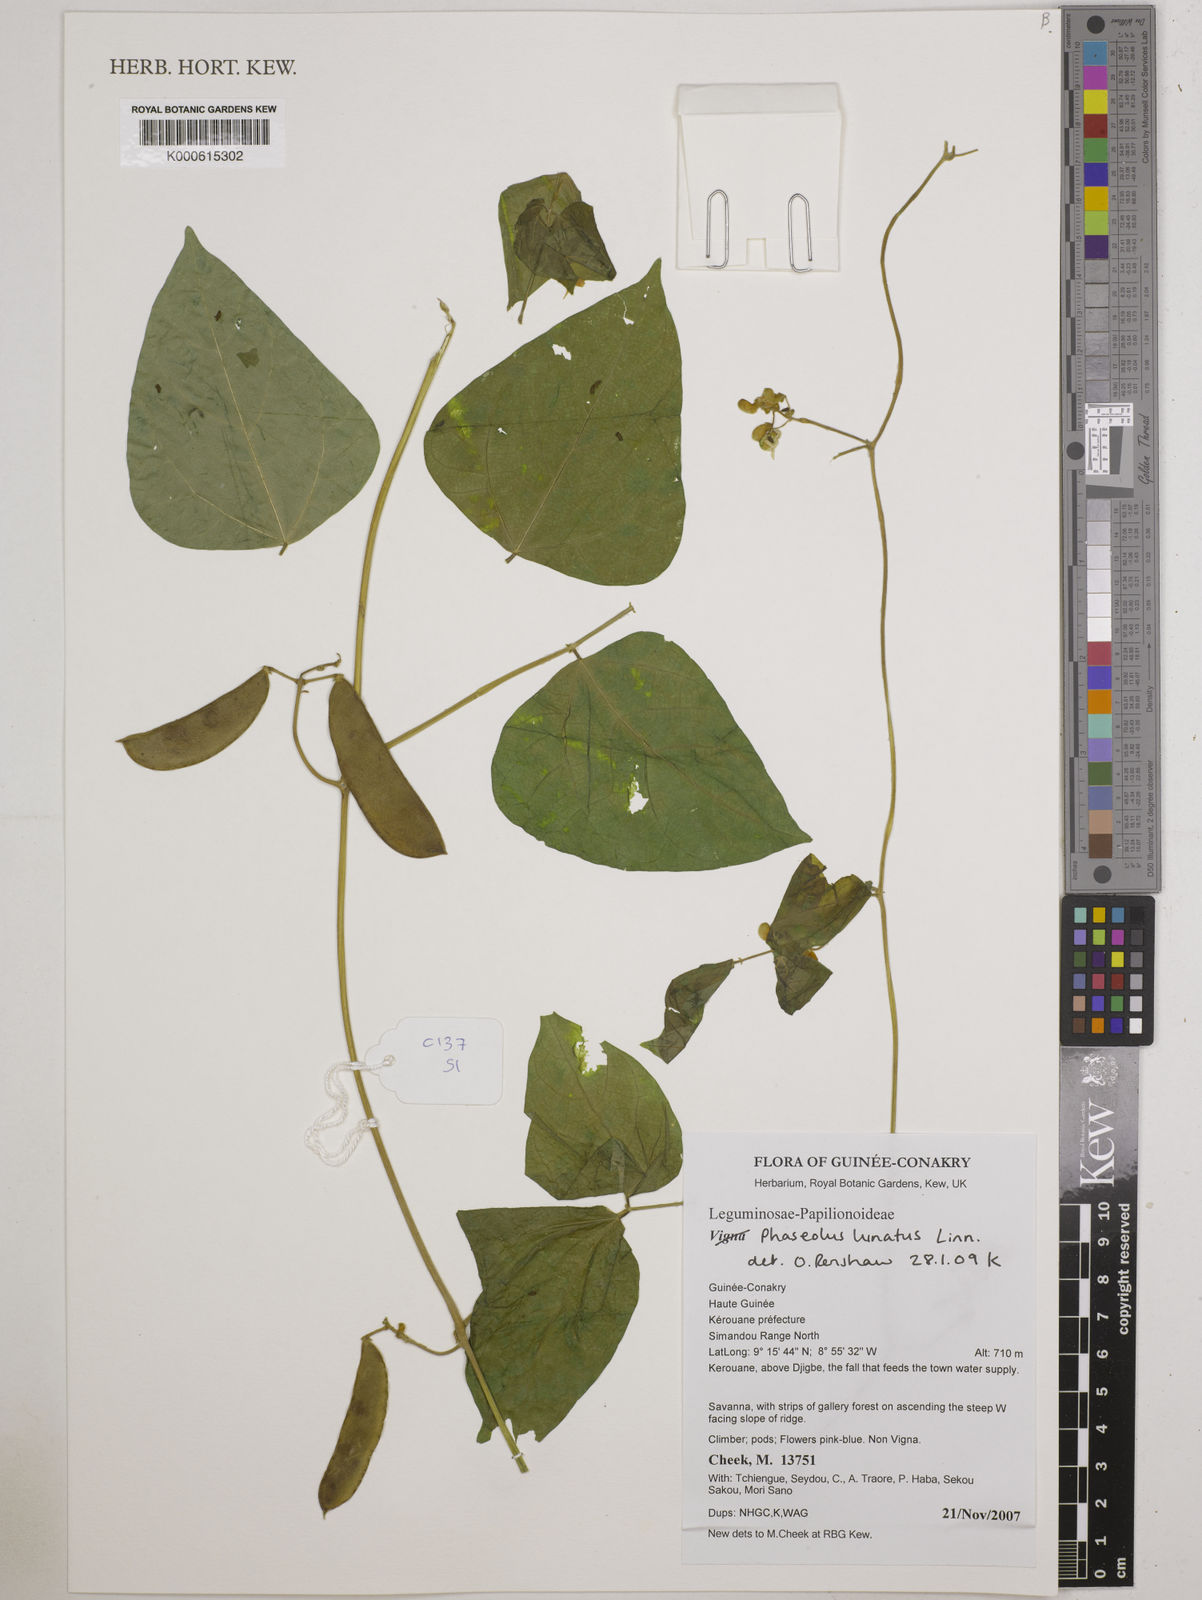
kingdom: Plantae
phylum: Tracheophyta
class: Magnoliopsida
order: Fabales
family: Fabaceae
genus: Phaseolus
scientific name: Phaseolus lunatus
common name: Sieva bean
